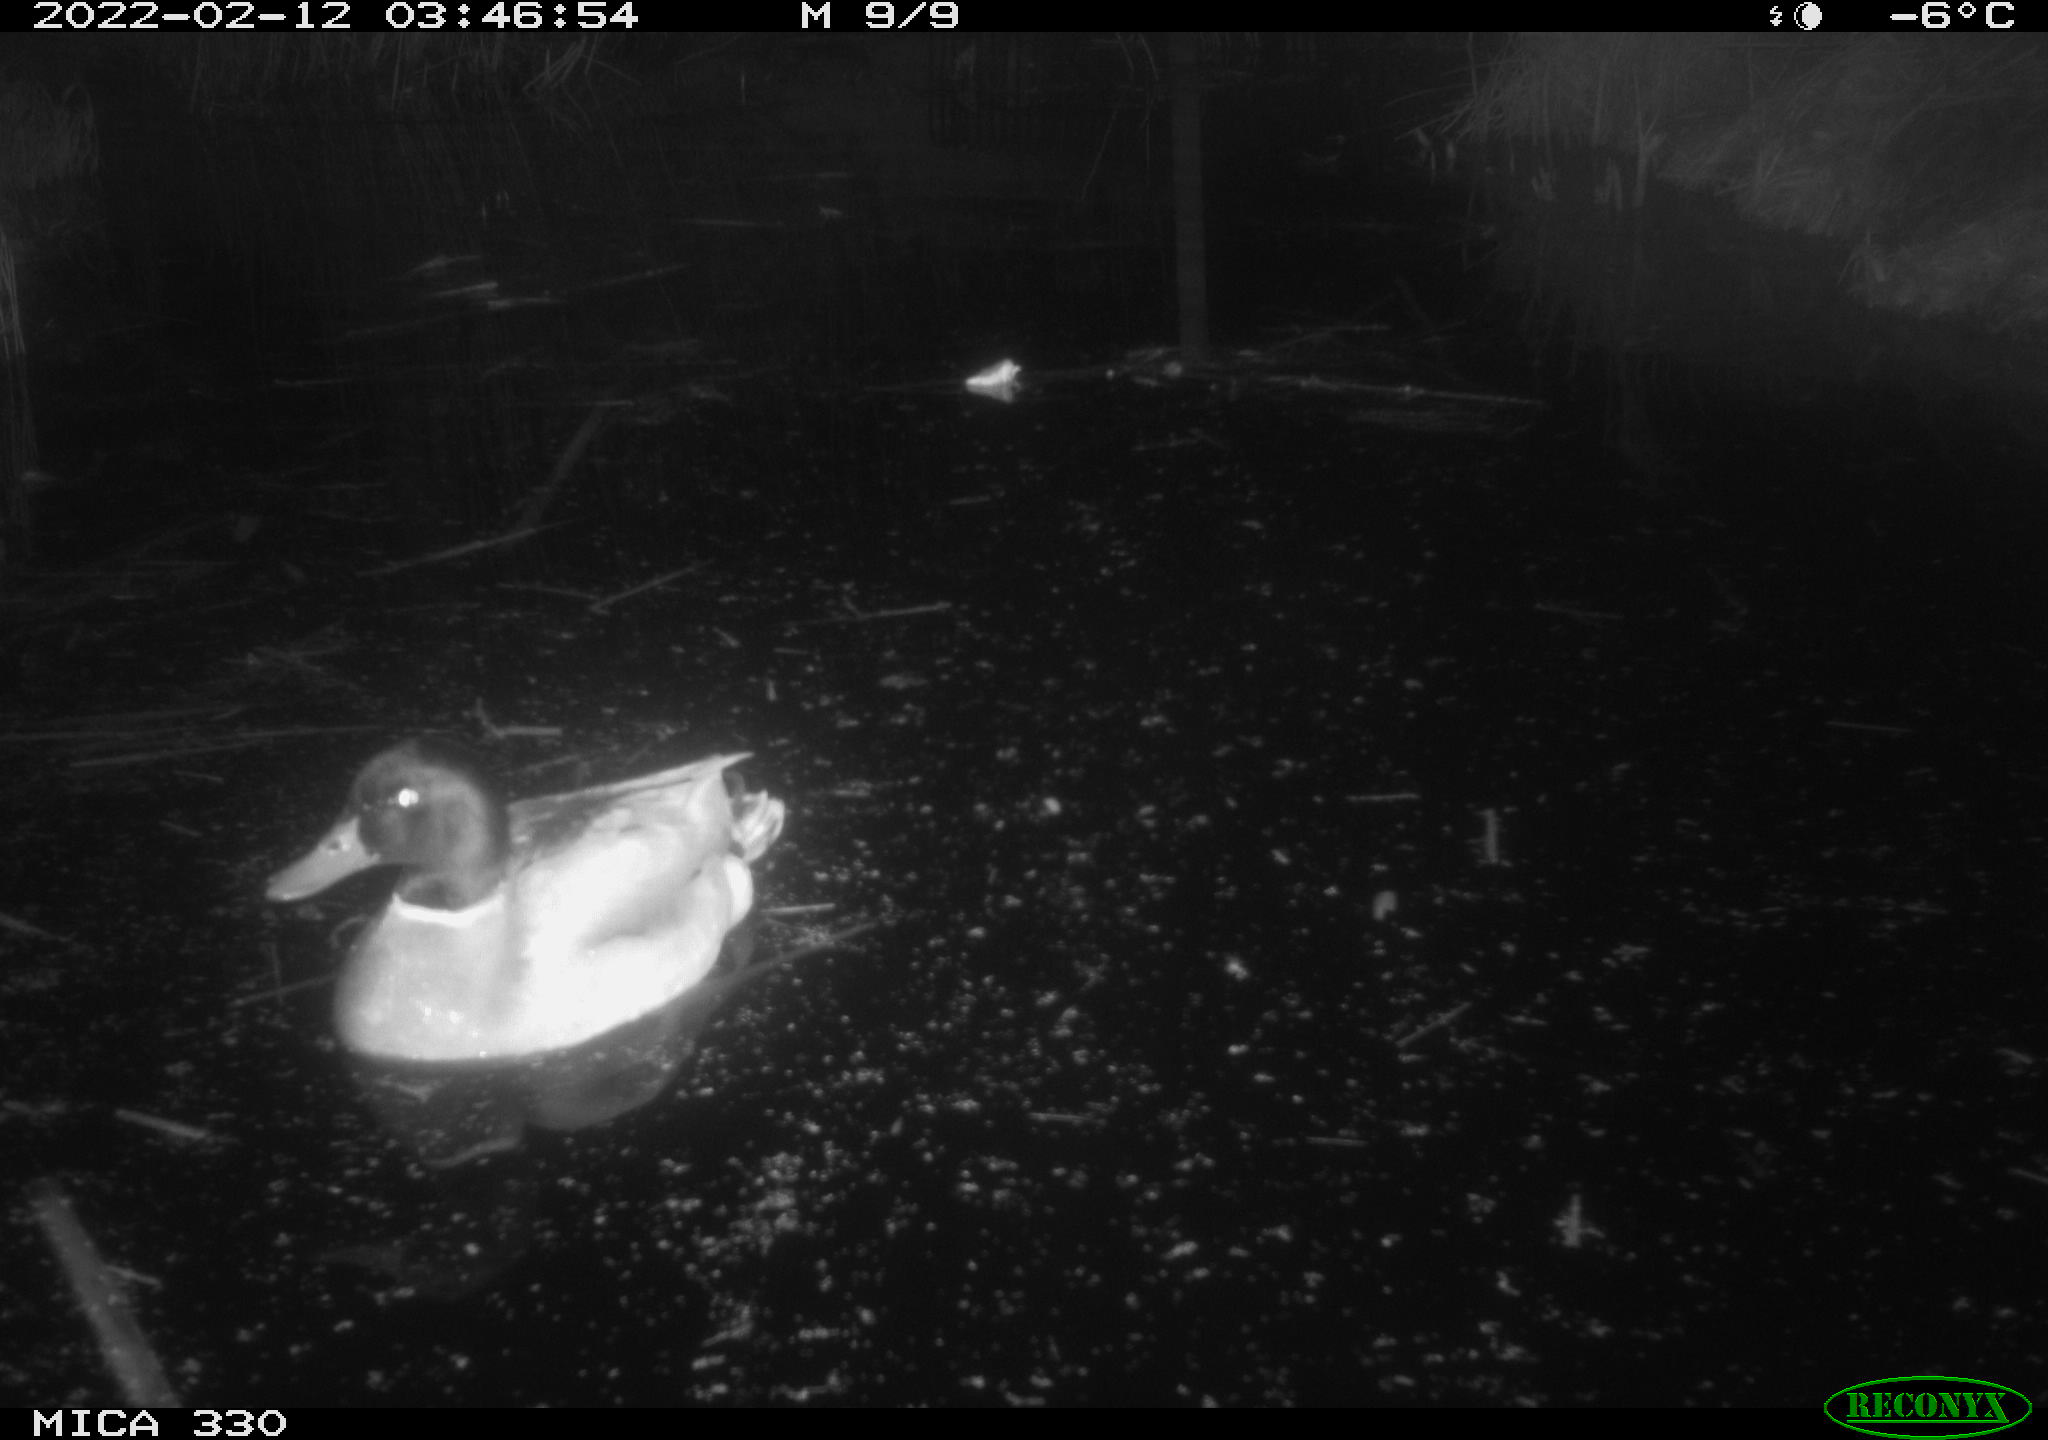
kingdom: Animalia
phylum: Chordata
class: Aves
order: Anseriformes
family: Anatidae
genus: Anas
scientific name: Anas platyrhynchos
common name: Mallard
